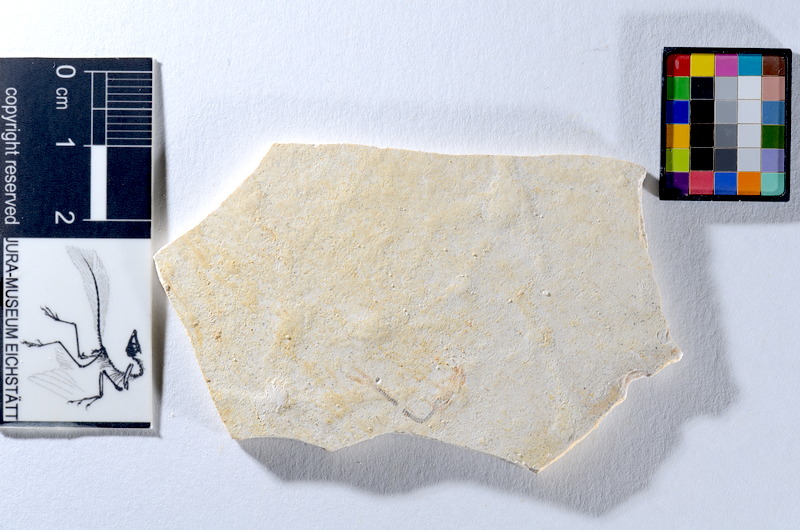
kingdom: Animalia
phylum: Chordata
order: Salmoniformes
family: Orthogonikleithridae
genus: Orthogonikleithrus
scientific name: Orthogonikleithrus hoelli
